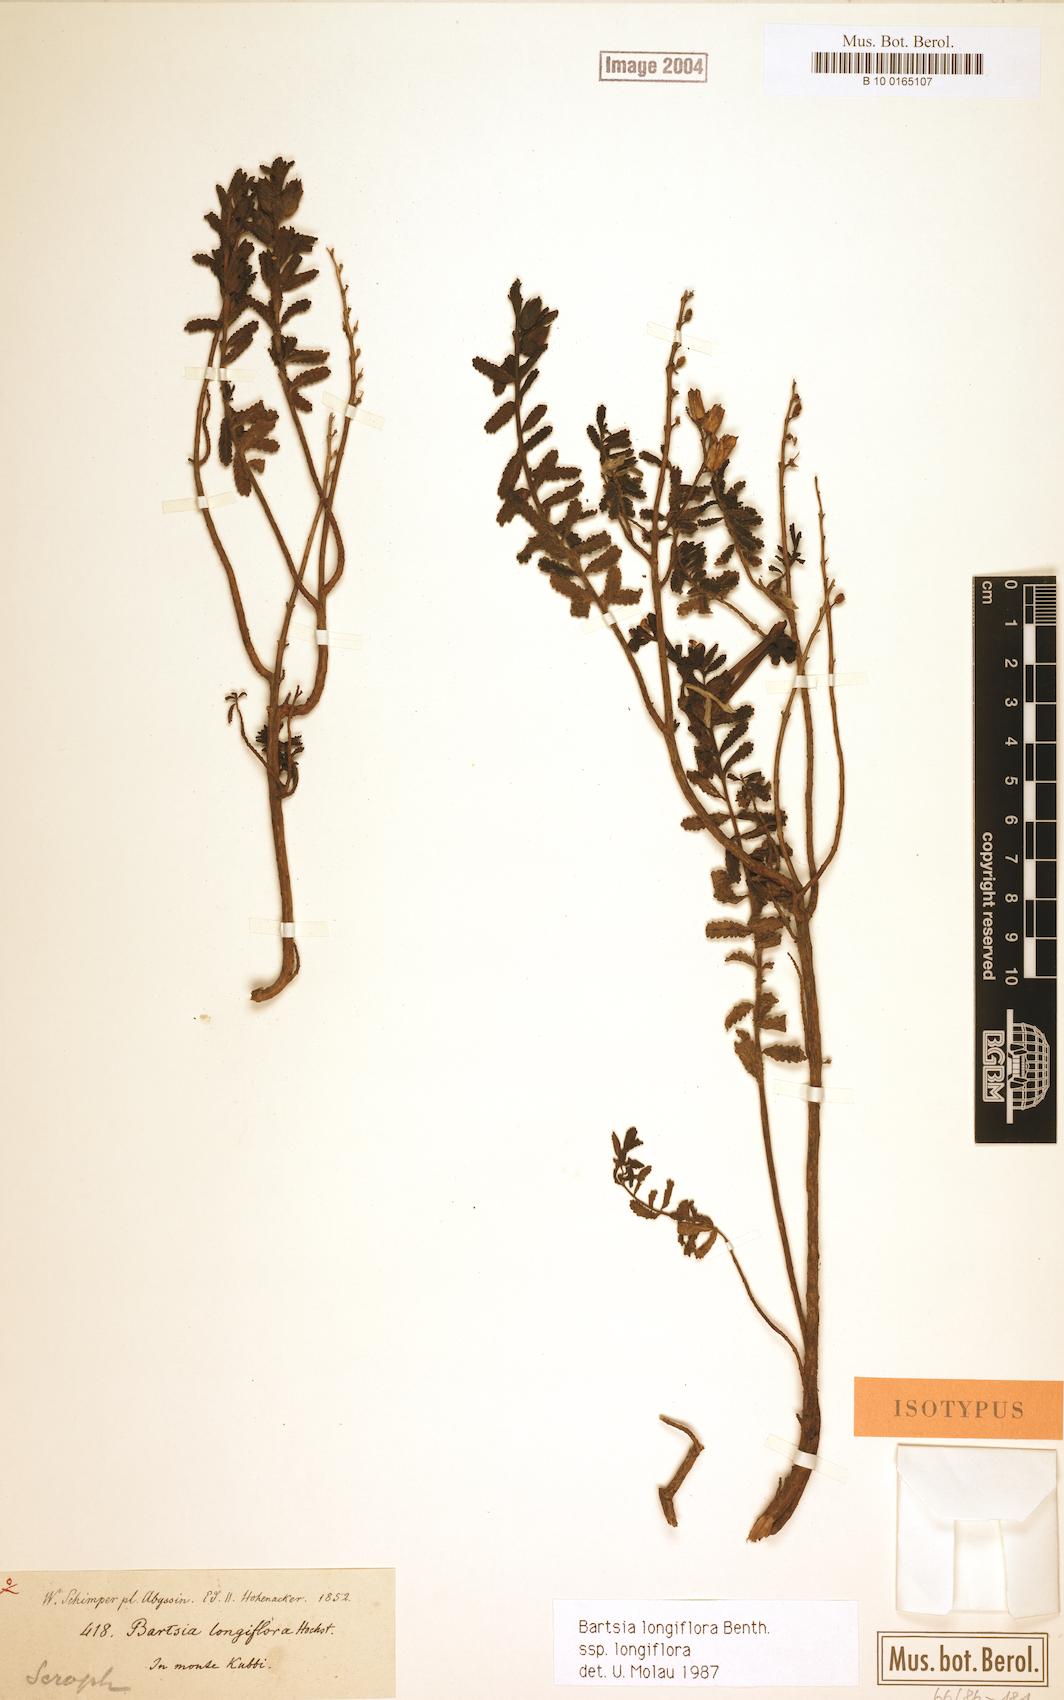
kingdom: Plantae
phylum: Tracheophyta
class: Magnoliopsida
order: Lamiales
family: Orobanchaceae
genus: Hedbergia
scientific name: Hedbergia longiflora
